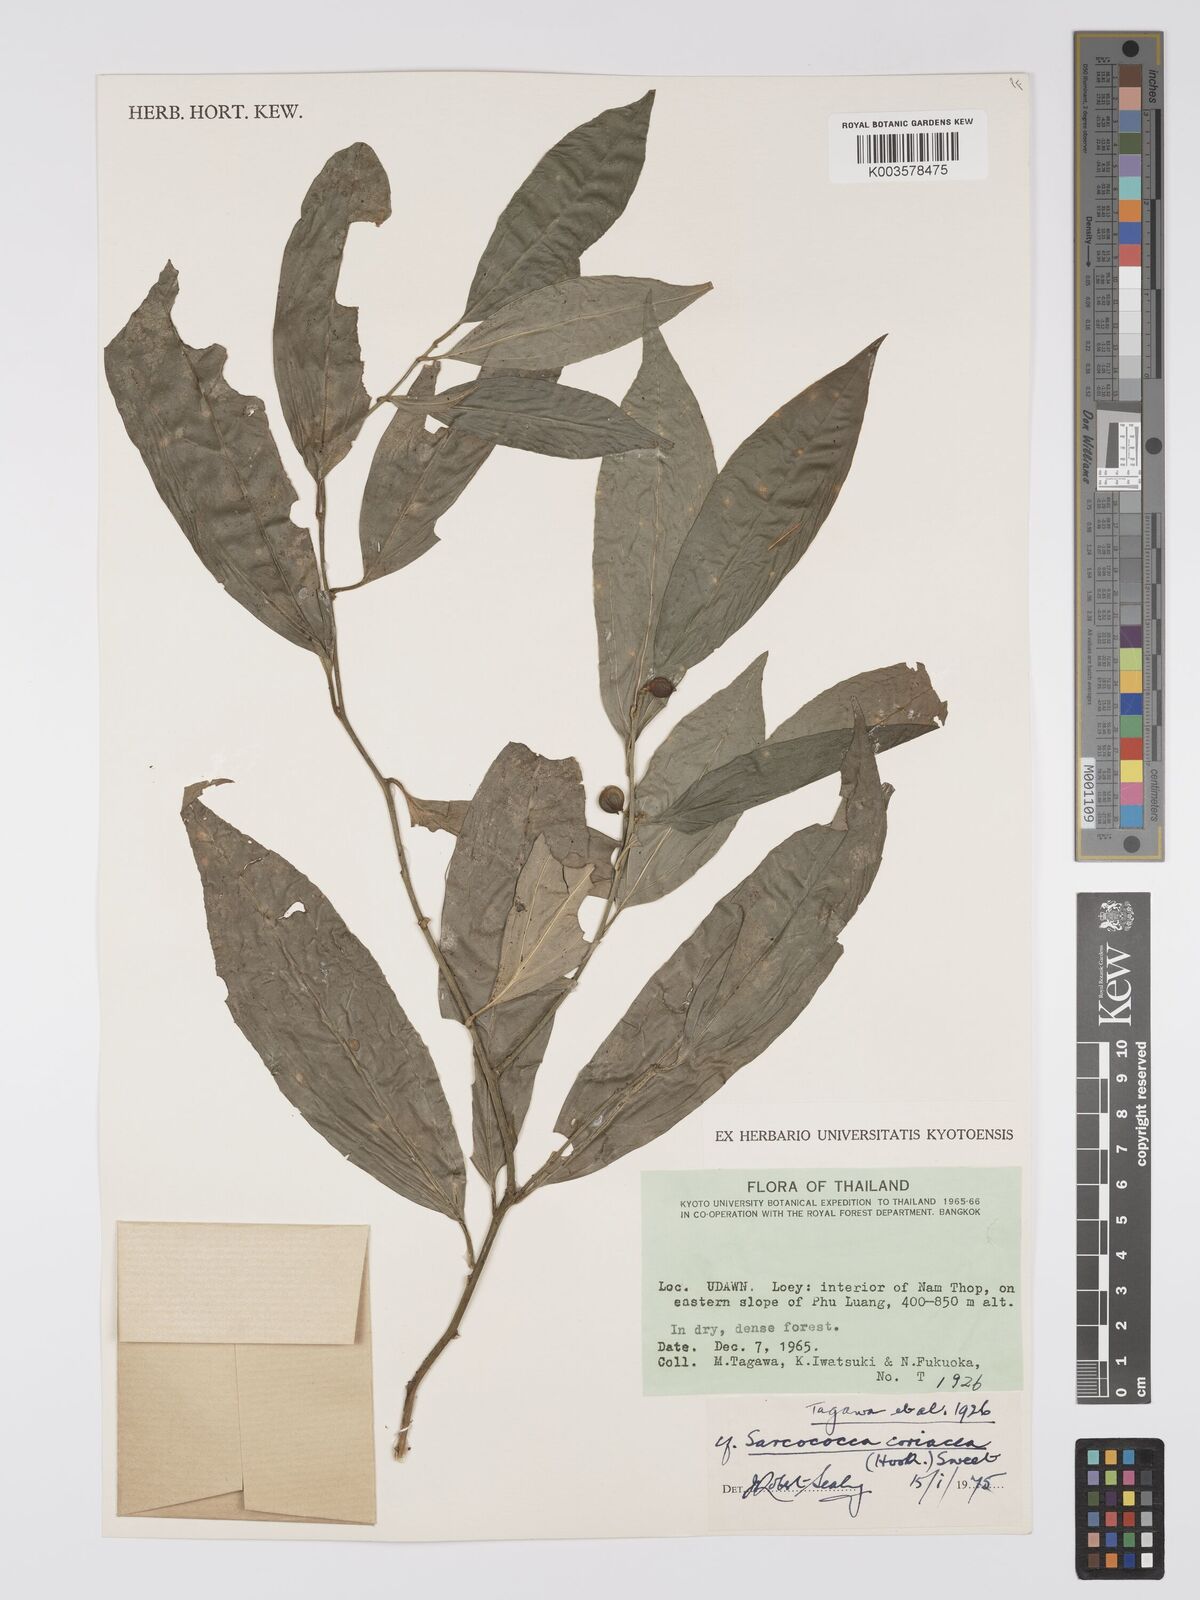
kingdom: Plantae
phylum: Tracheophyta
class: Magnoliopsida
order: Buxales
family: Buxaceae
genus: Sarcococca
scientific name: Sarcococca coriacea
